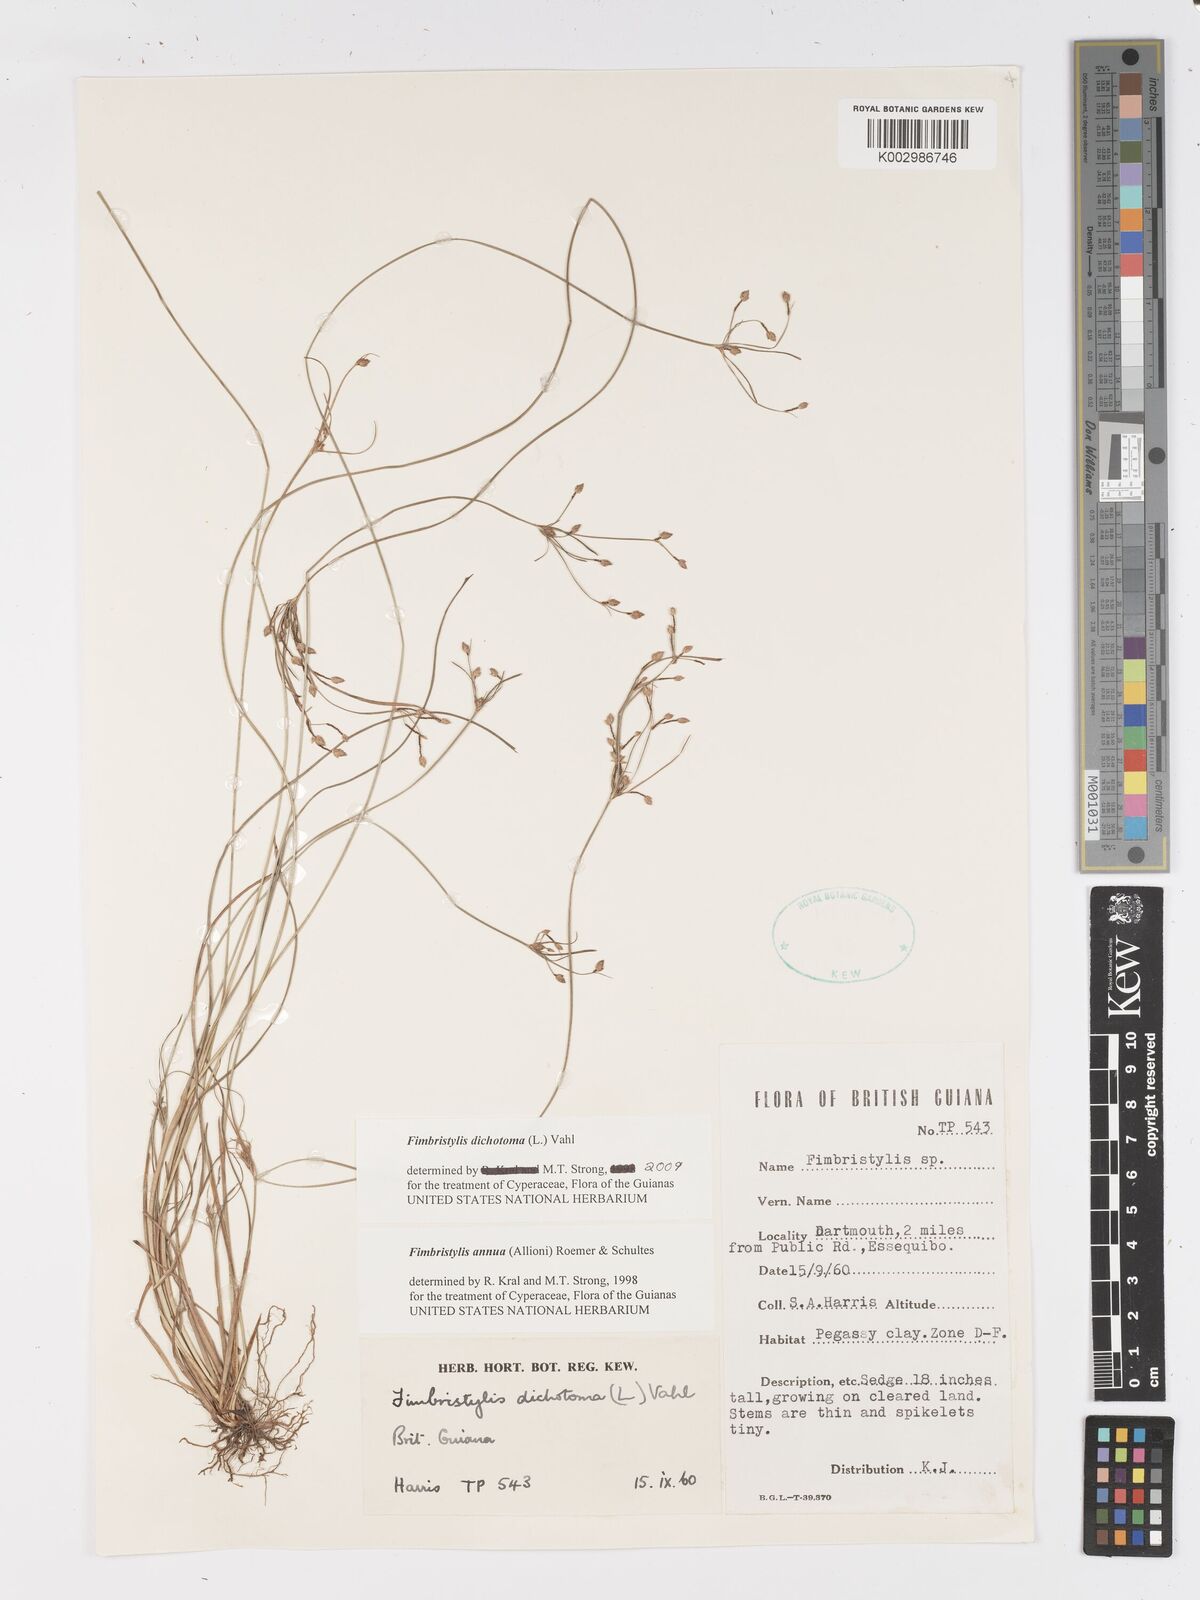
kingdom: Plantae
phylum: Tracheophyta
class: Liliopsida
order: Poales
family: Cyperaceae
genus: Fimbristylis
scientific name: Fimbristylis dichotoma
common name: Forked fimbry
